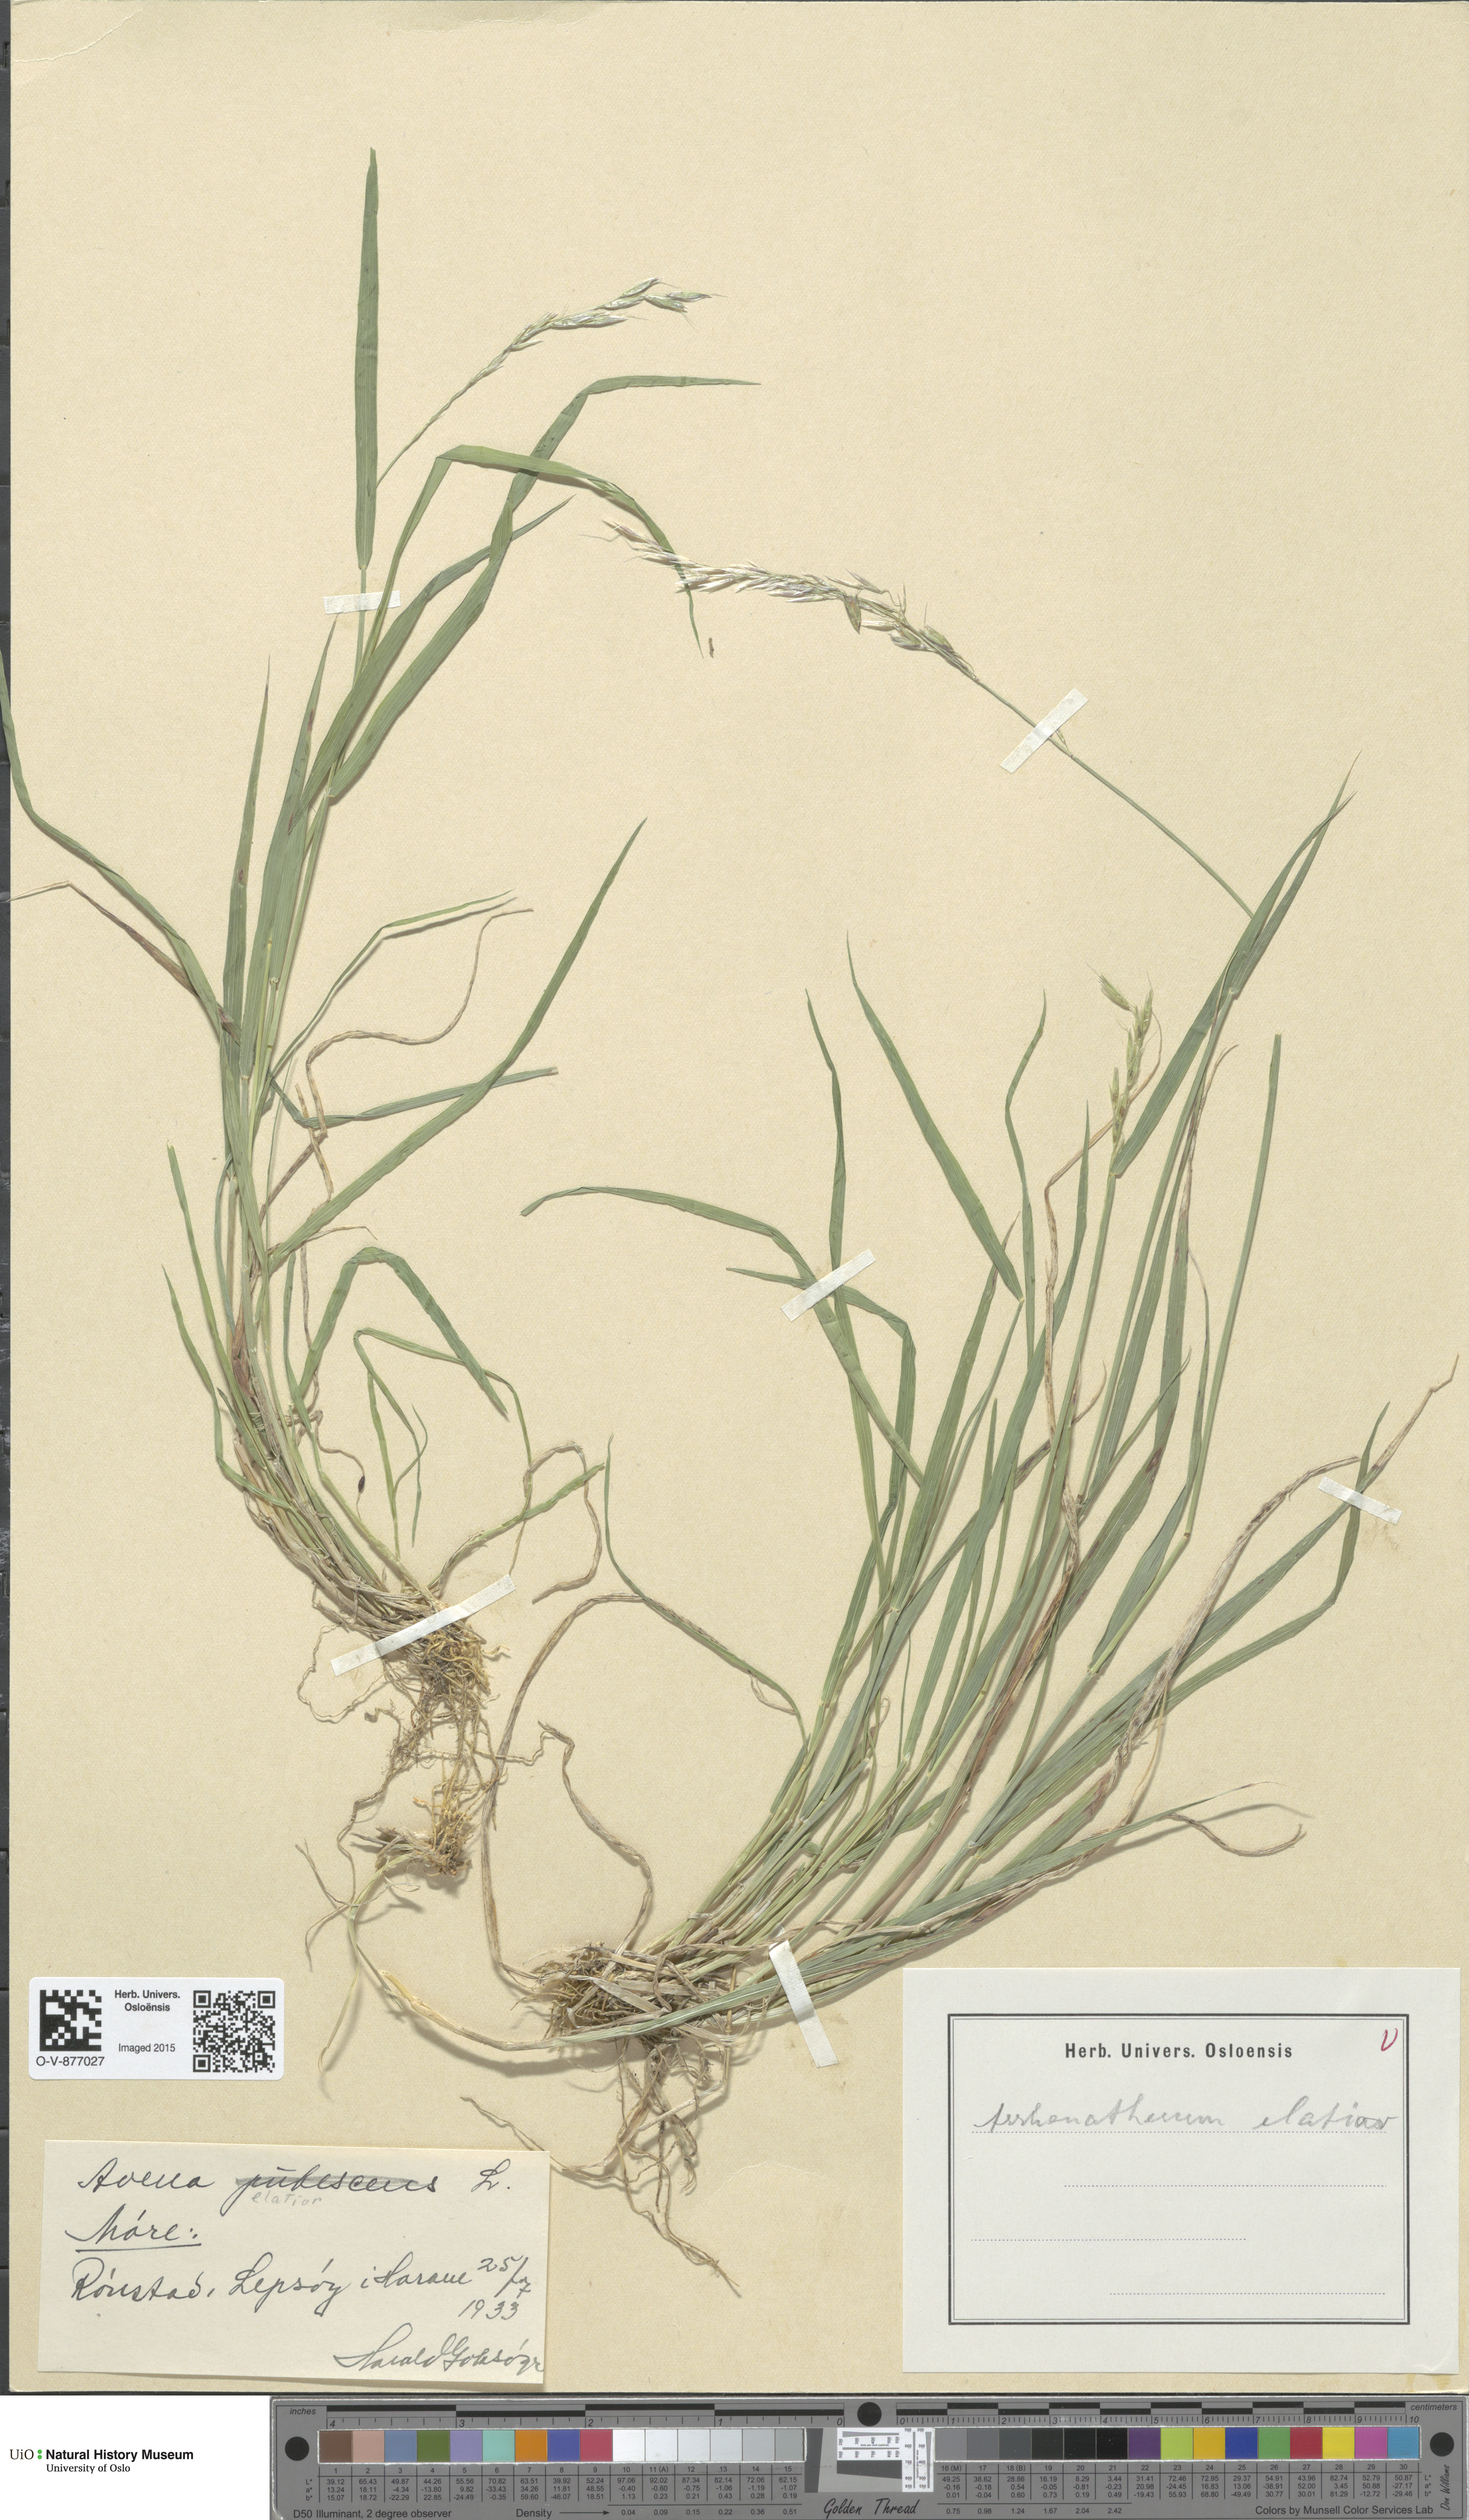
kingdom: Plantae
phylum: Tracheophyta
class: Liliopsida
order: Poales
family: Poaceae
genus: Arrhenatherum
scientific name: Arrhenatherum elatius
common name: Tall oatgrass
